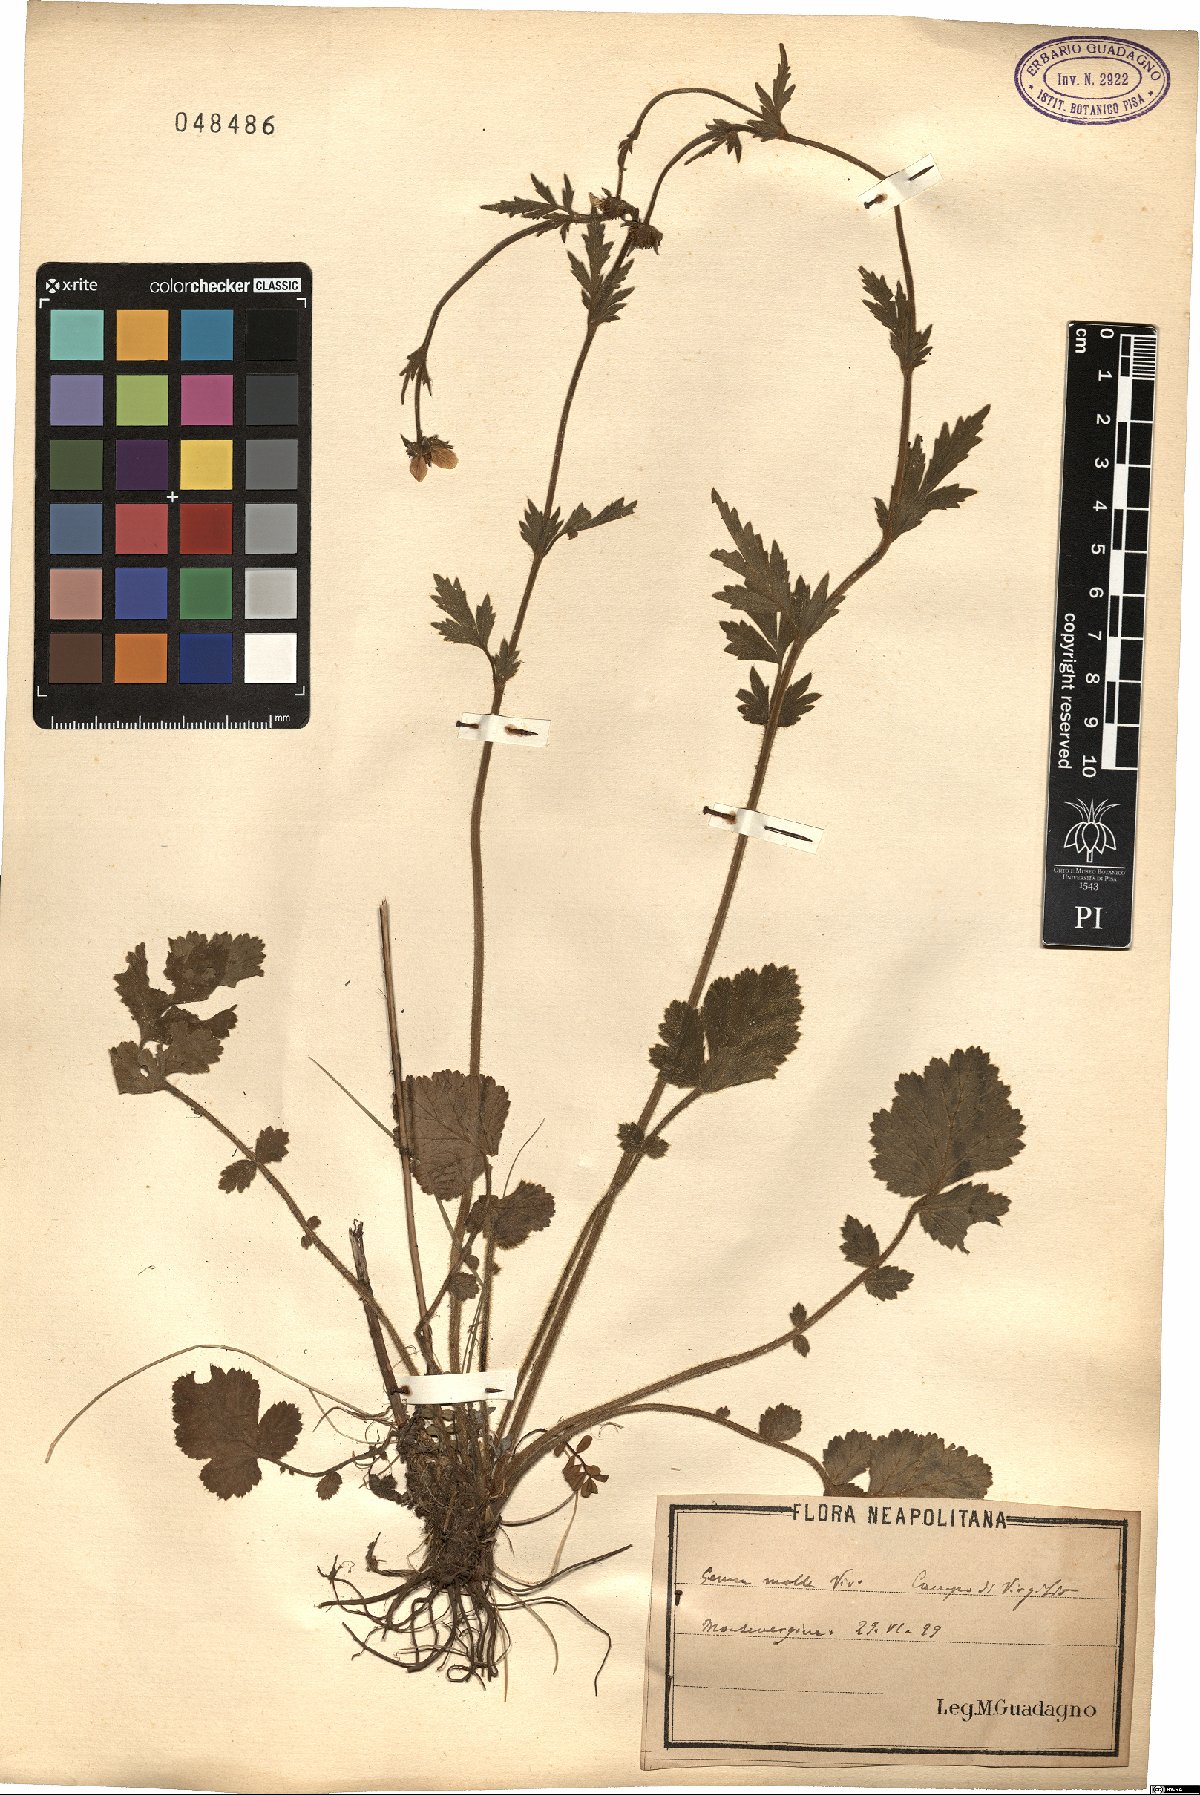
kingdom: Plantae
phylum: Tracheophyta
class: Magnoliopsida
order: Rosales
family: Rosaceae
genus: Geum
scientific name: Geum molle
